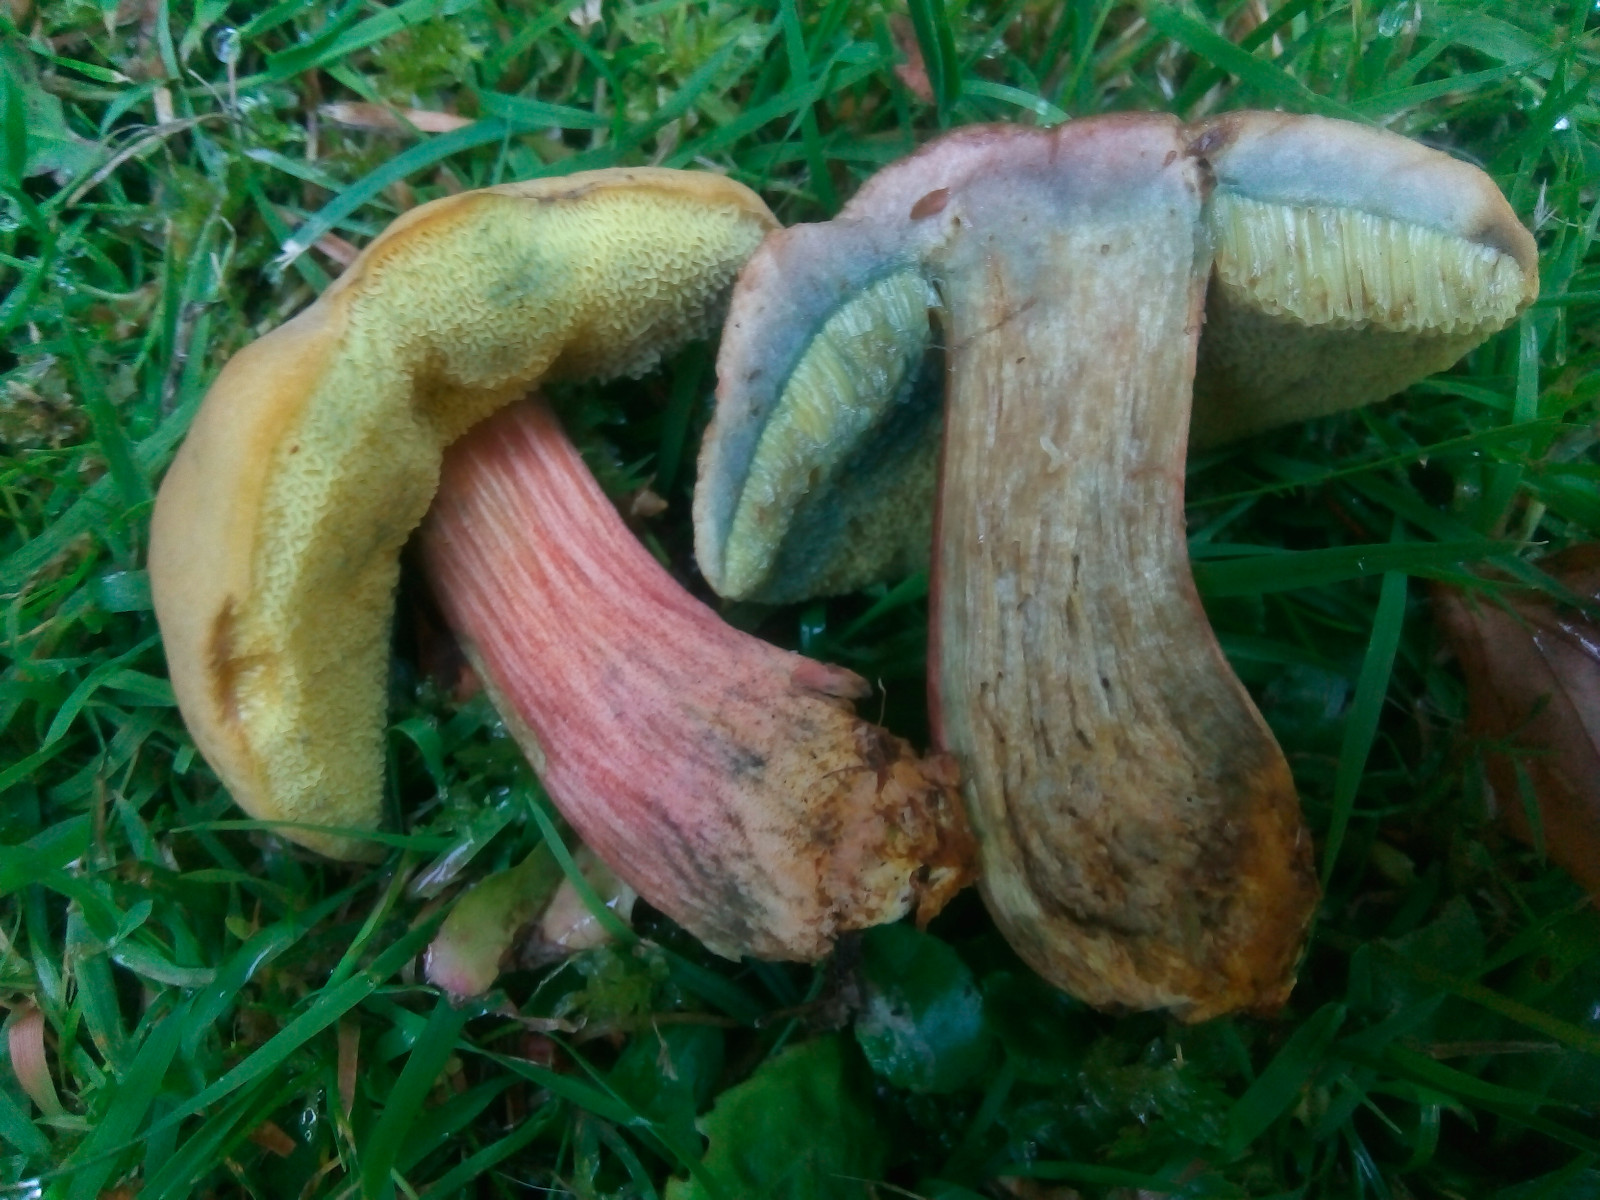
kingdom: Fungi
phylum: Basidiomycota
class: Agaricomycetes
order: Boletales
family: Boletaceae
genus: Hortiboletus
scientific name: Hortiboletus bubalinus
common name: aurora-rørhat
